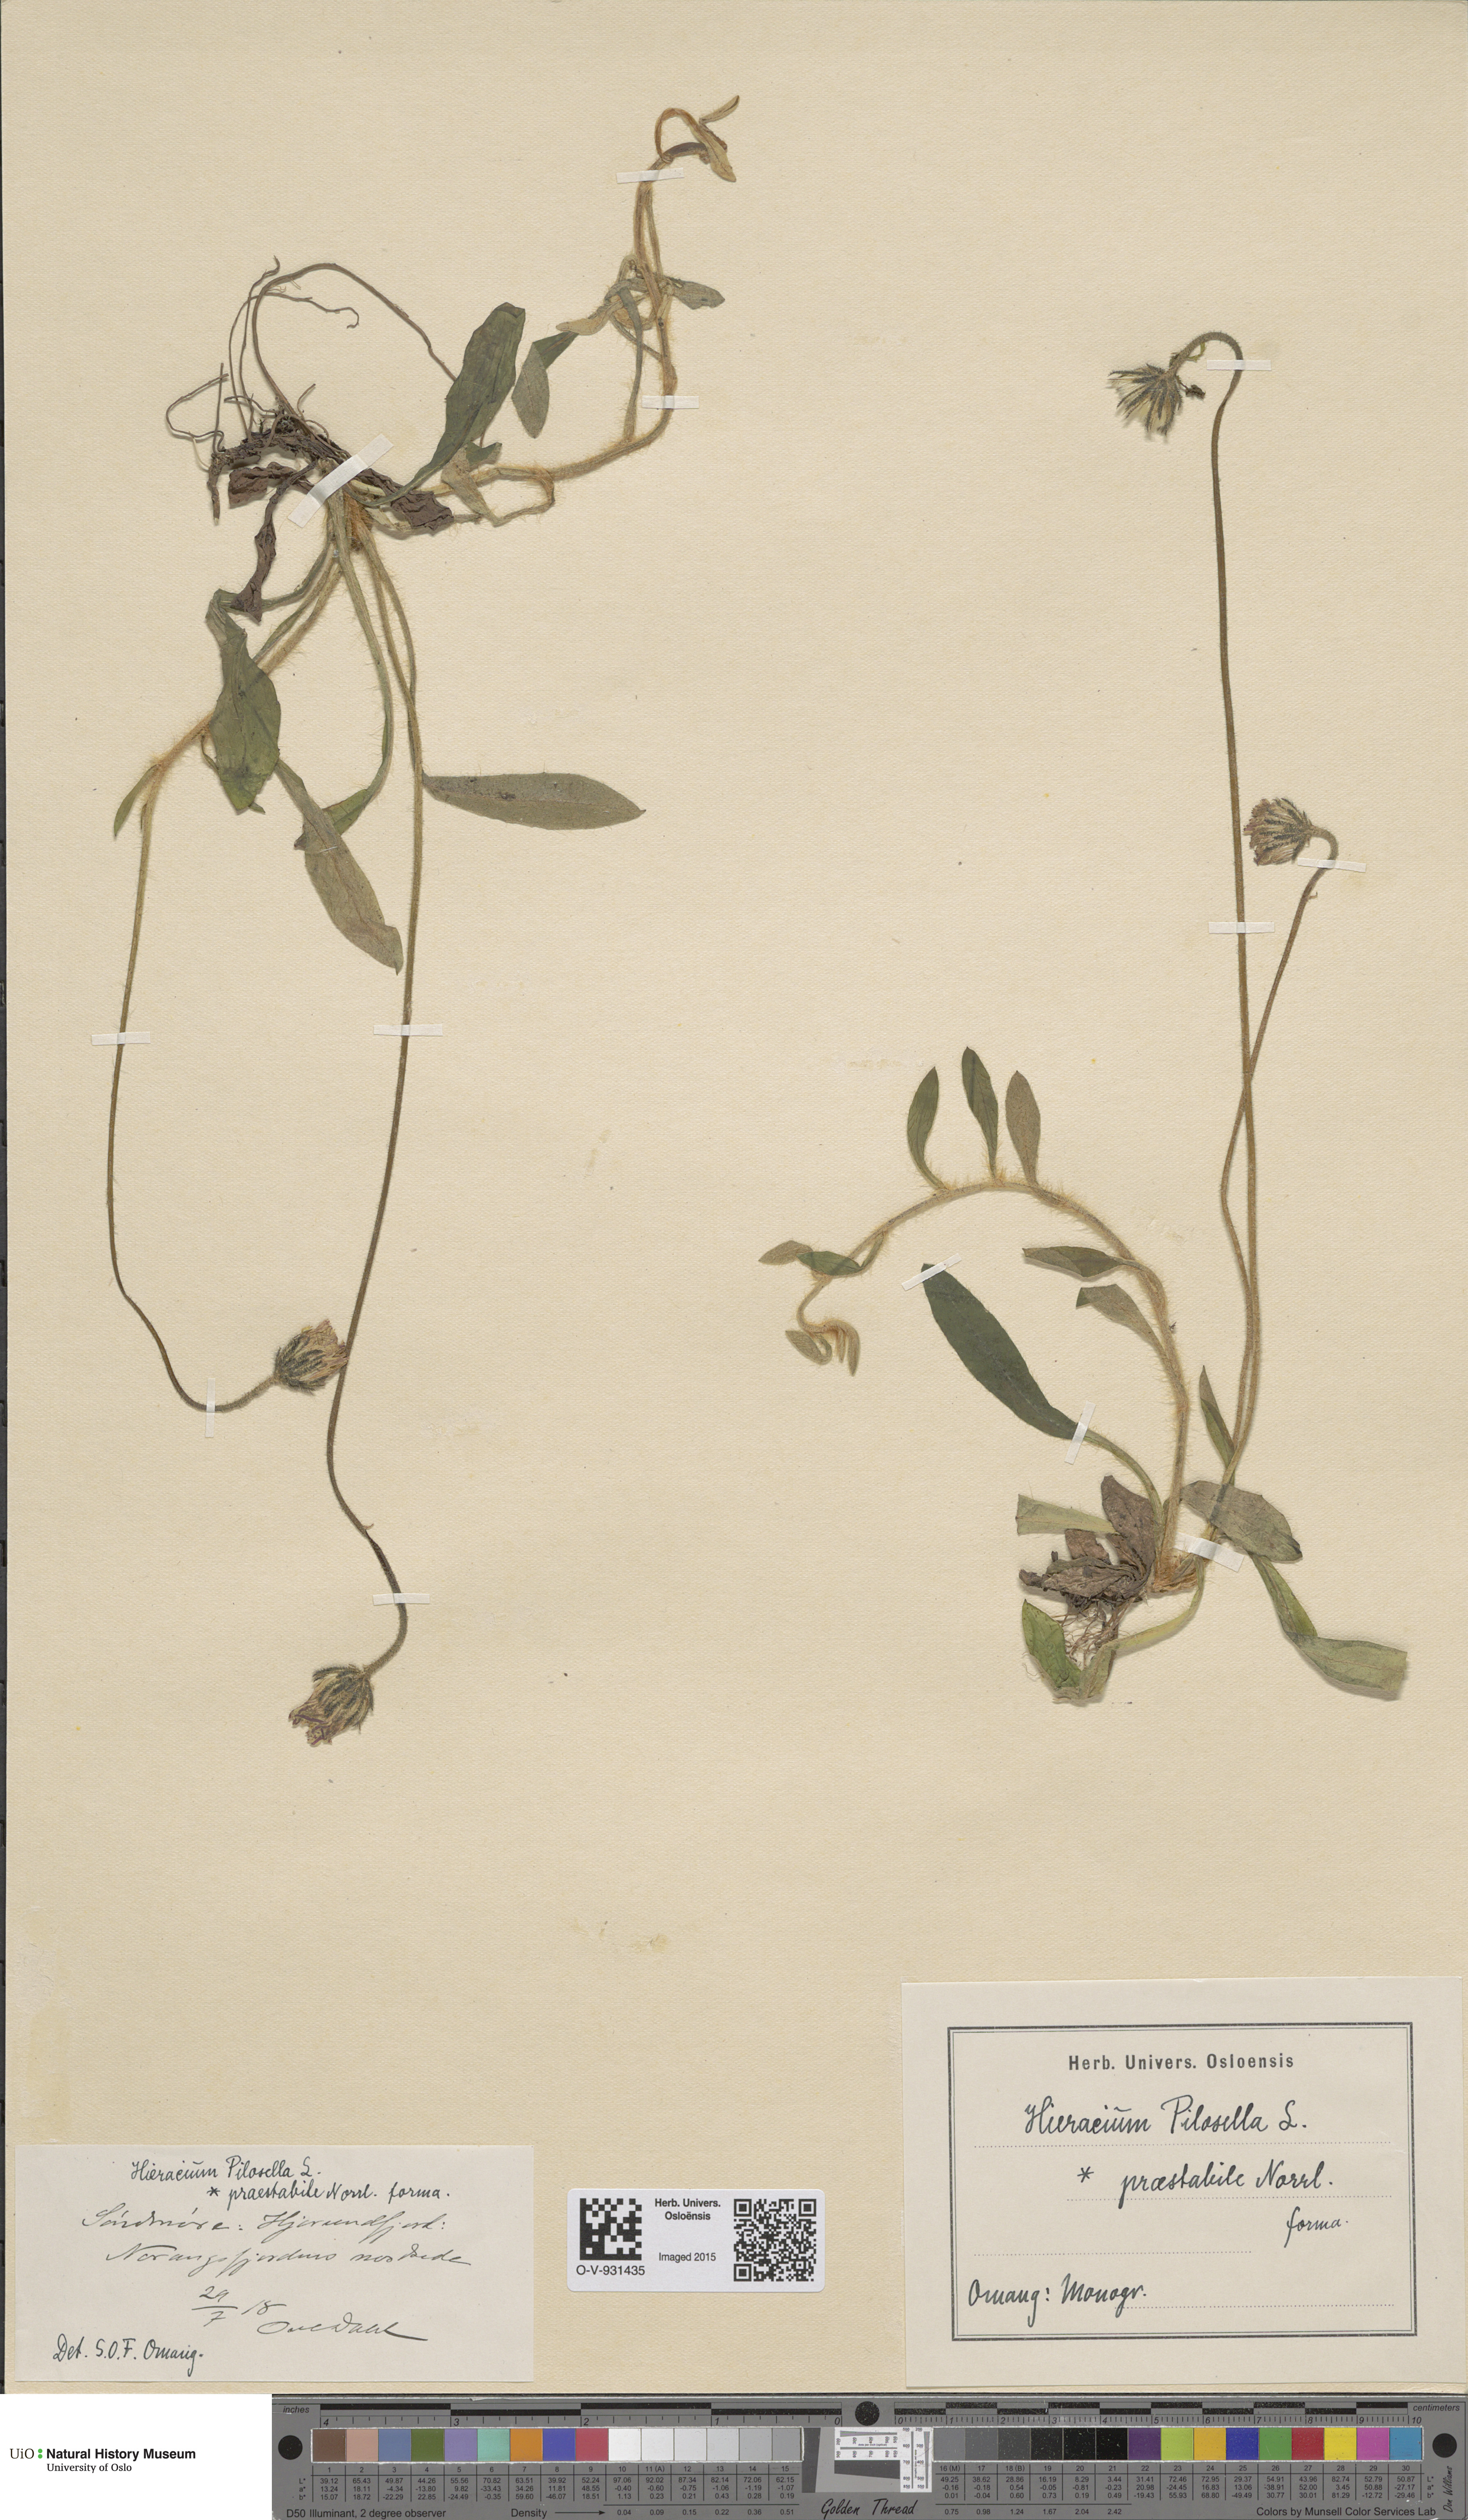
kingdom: Plantae
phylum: Tracheophyta
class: Magnoliopsida
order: Asterales
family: Asteraceae
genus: Pilosella
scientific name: Pilosella officinarum
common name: Mouse-ear hawkweed
